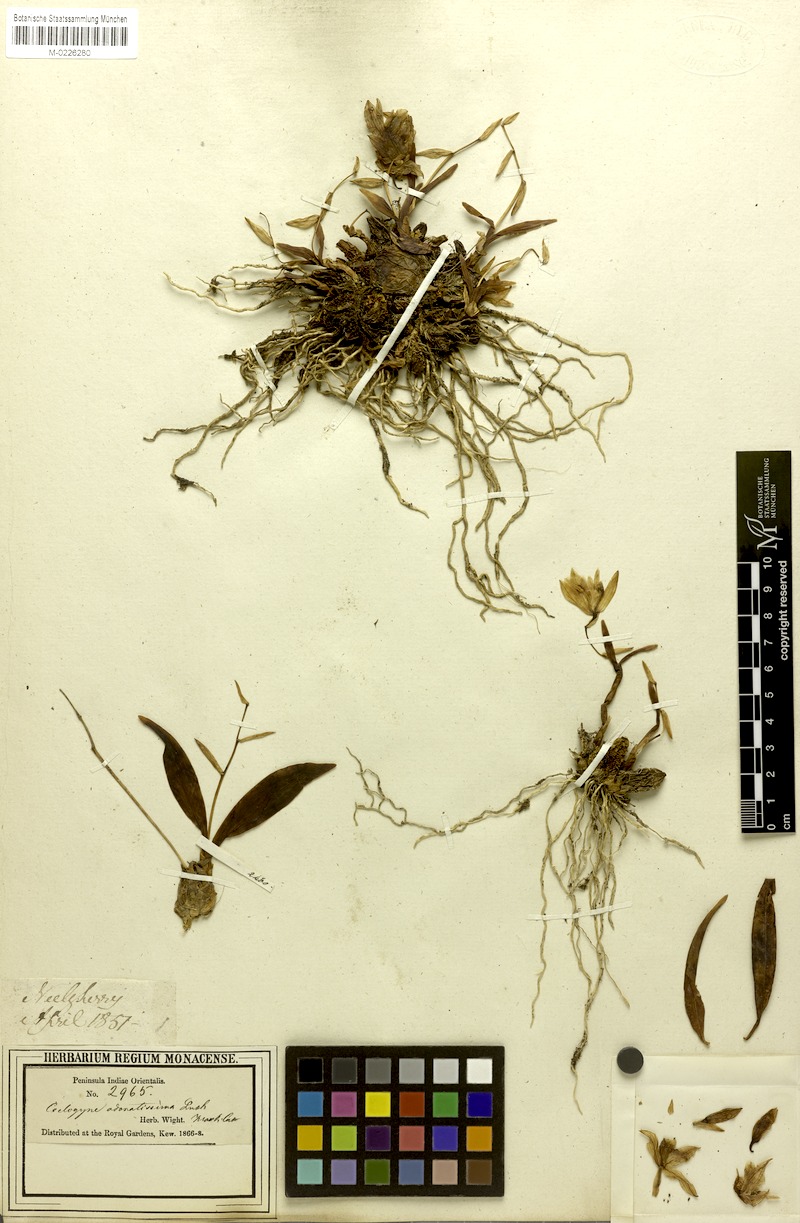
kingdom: Plantae
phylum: Tracheophyta
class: Liliopsida
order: Asparagales
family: Orchidaceae
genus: Coelogyne
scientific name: Coelogyne odoratissima
